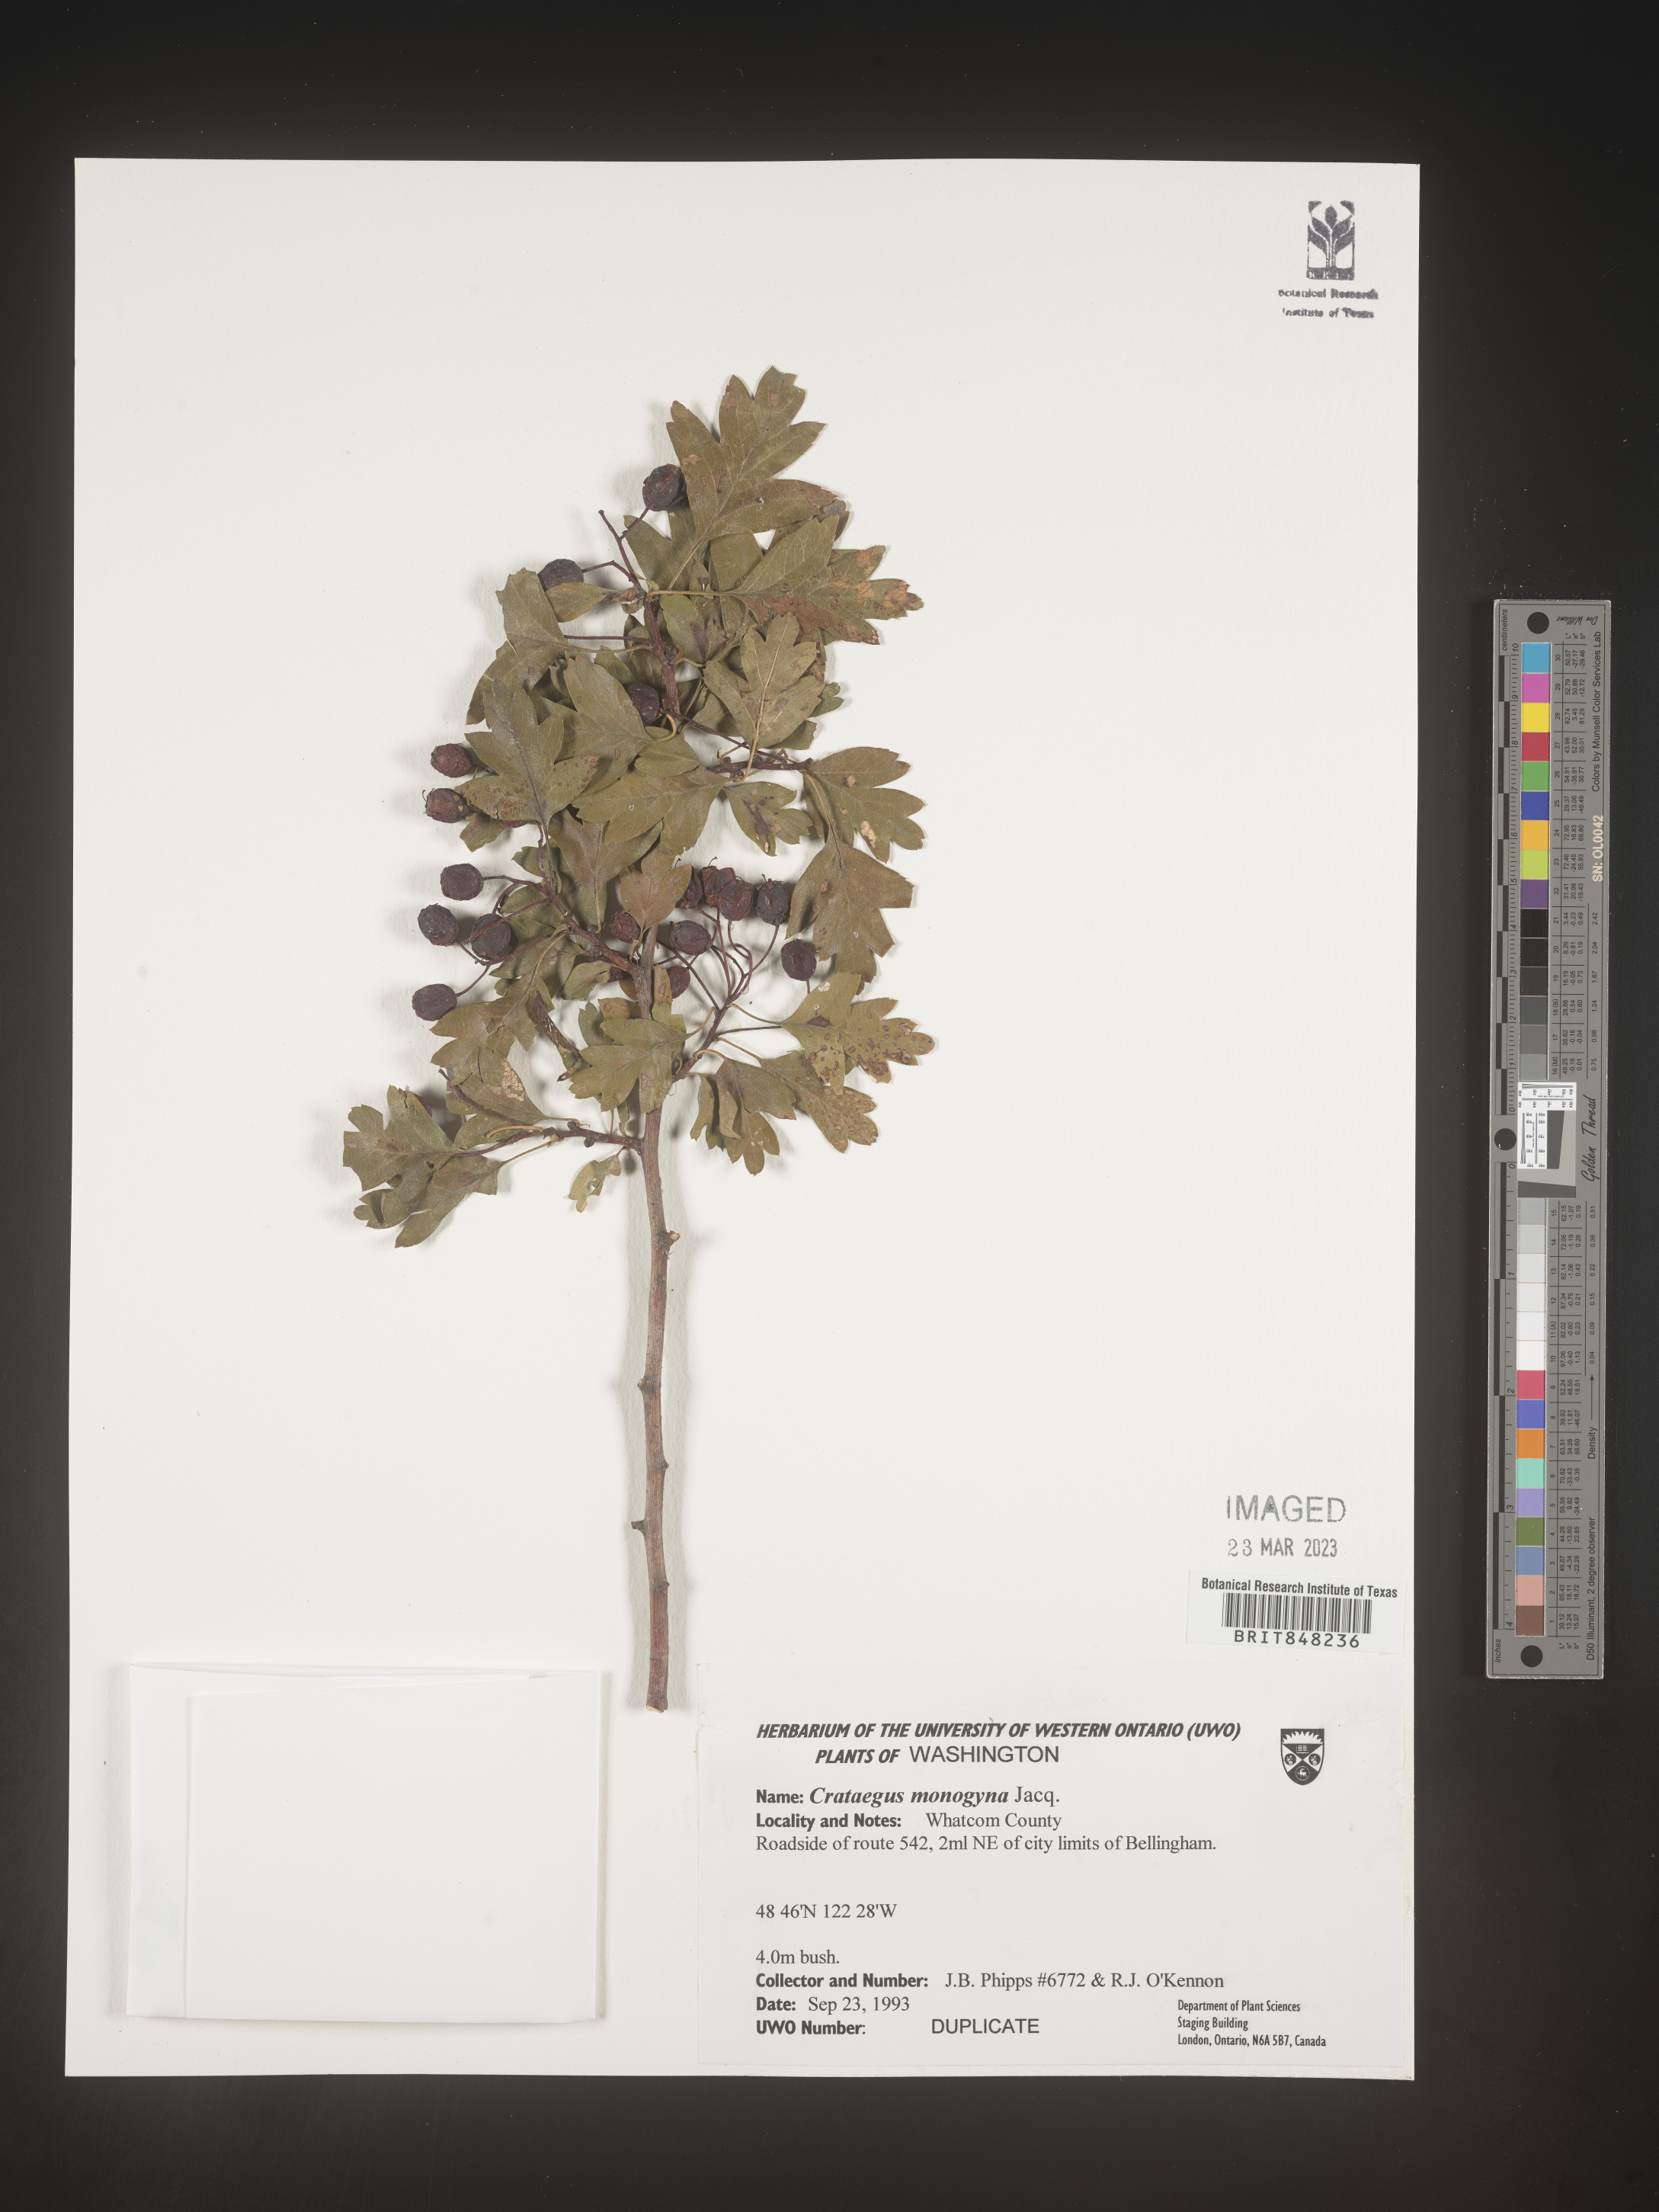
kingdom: Plantae
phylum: Tracheophyta
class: Magnoliopsida
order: Rosales
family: Rosaceae
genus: Crataegus
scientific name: Crataegus monogyna
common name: Hawthorn
